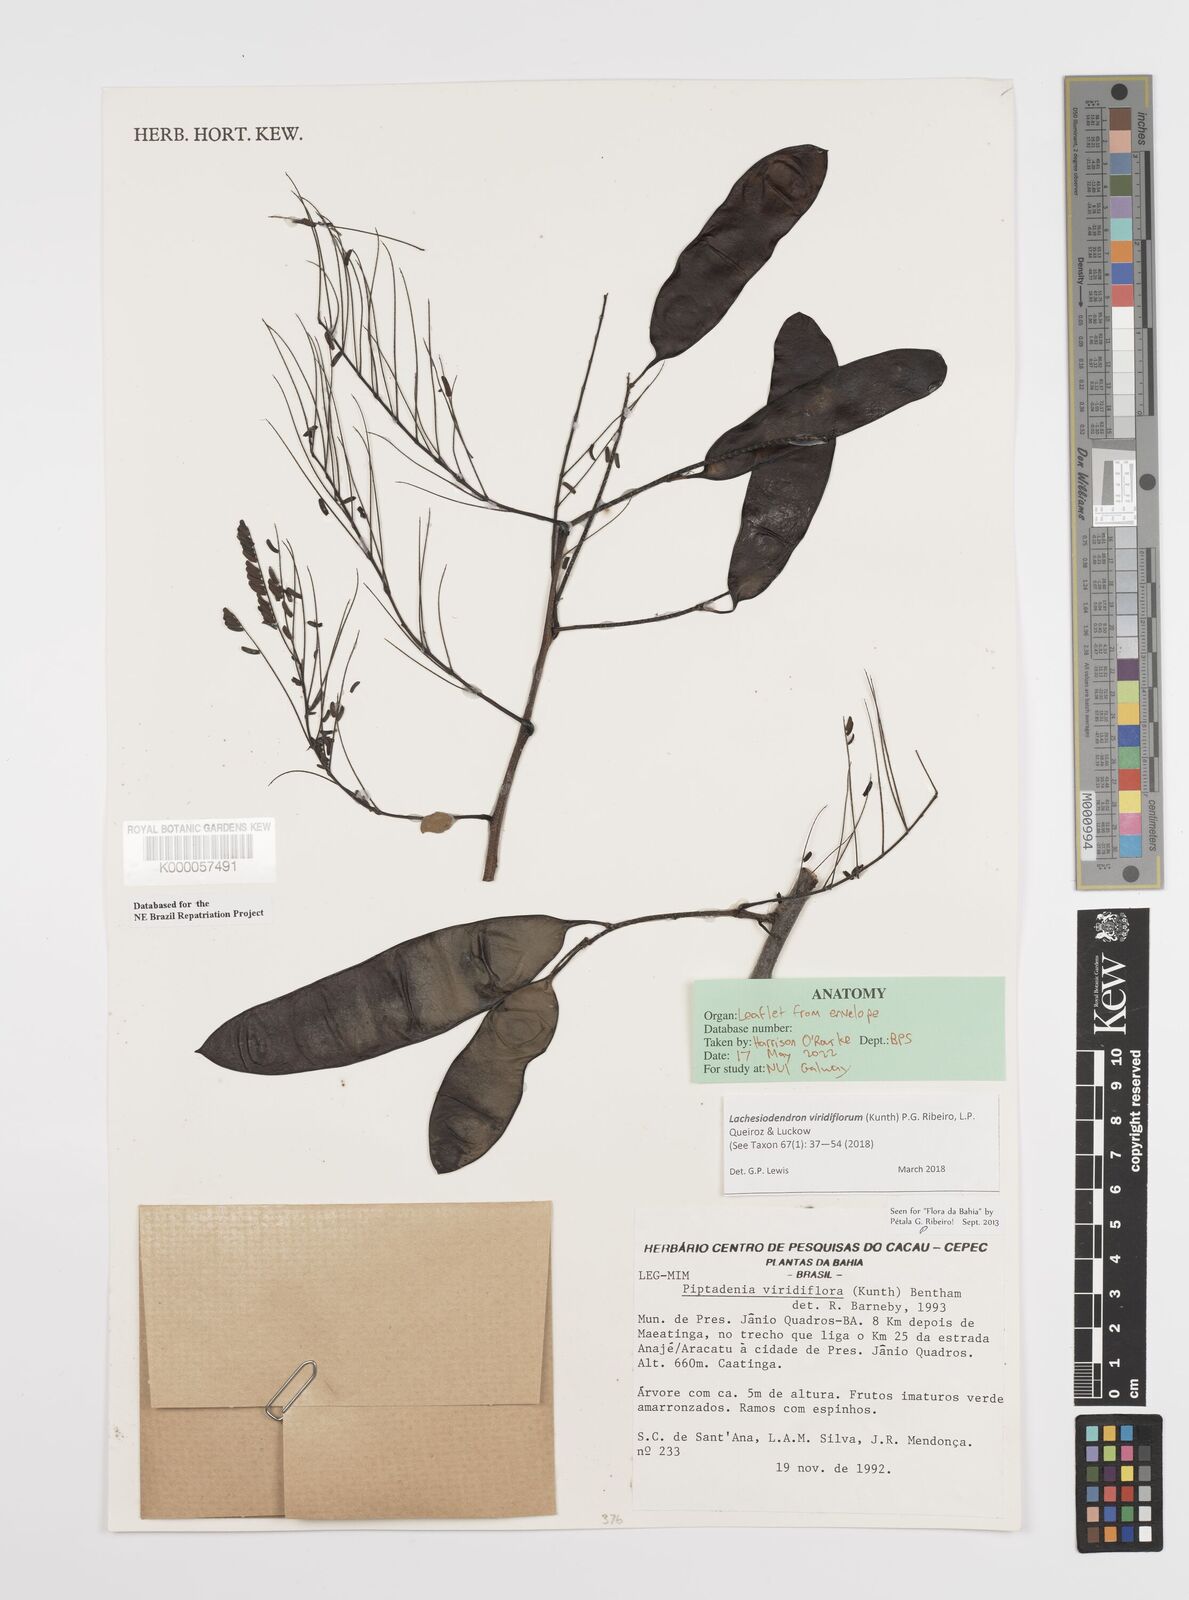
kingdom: Plantae
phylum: Tracheophyta
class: Magnoliopsida
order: Fabales
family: Fabaceae
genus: Lachesiodendron
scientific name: Lachesiodendron viridiflorum
